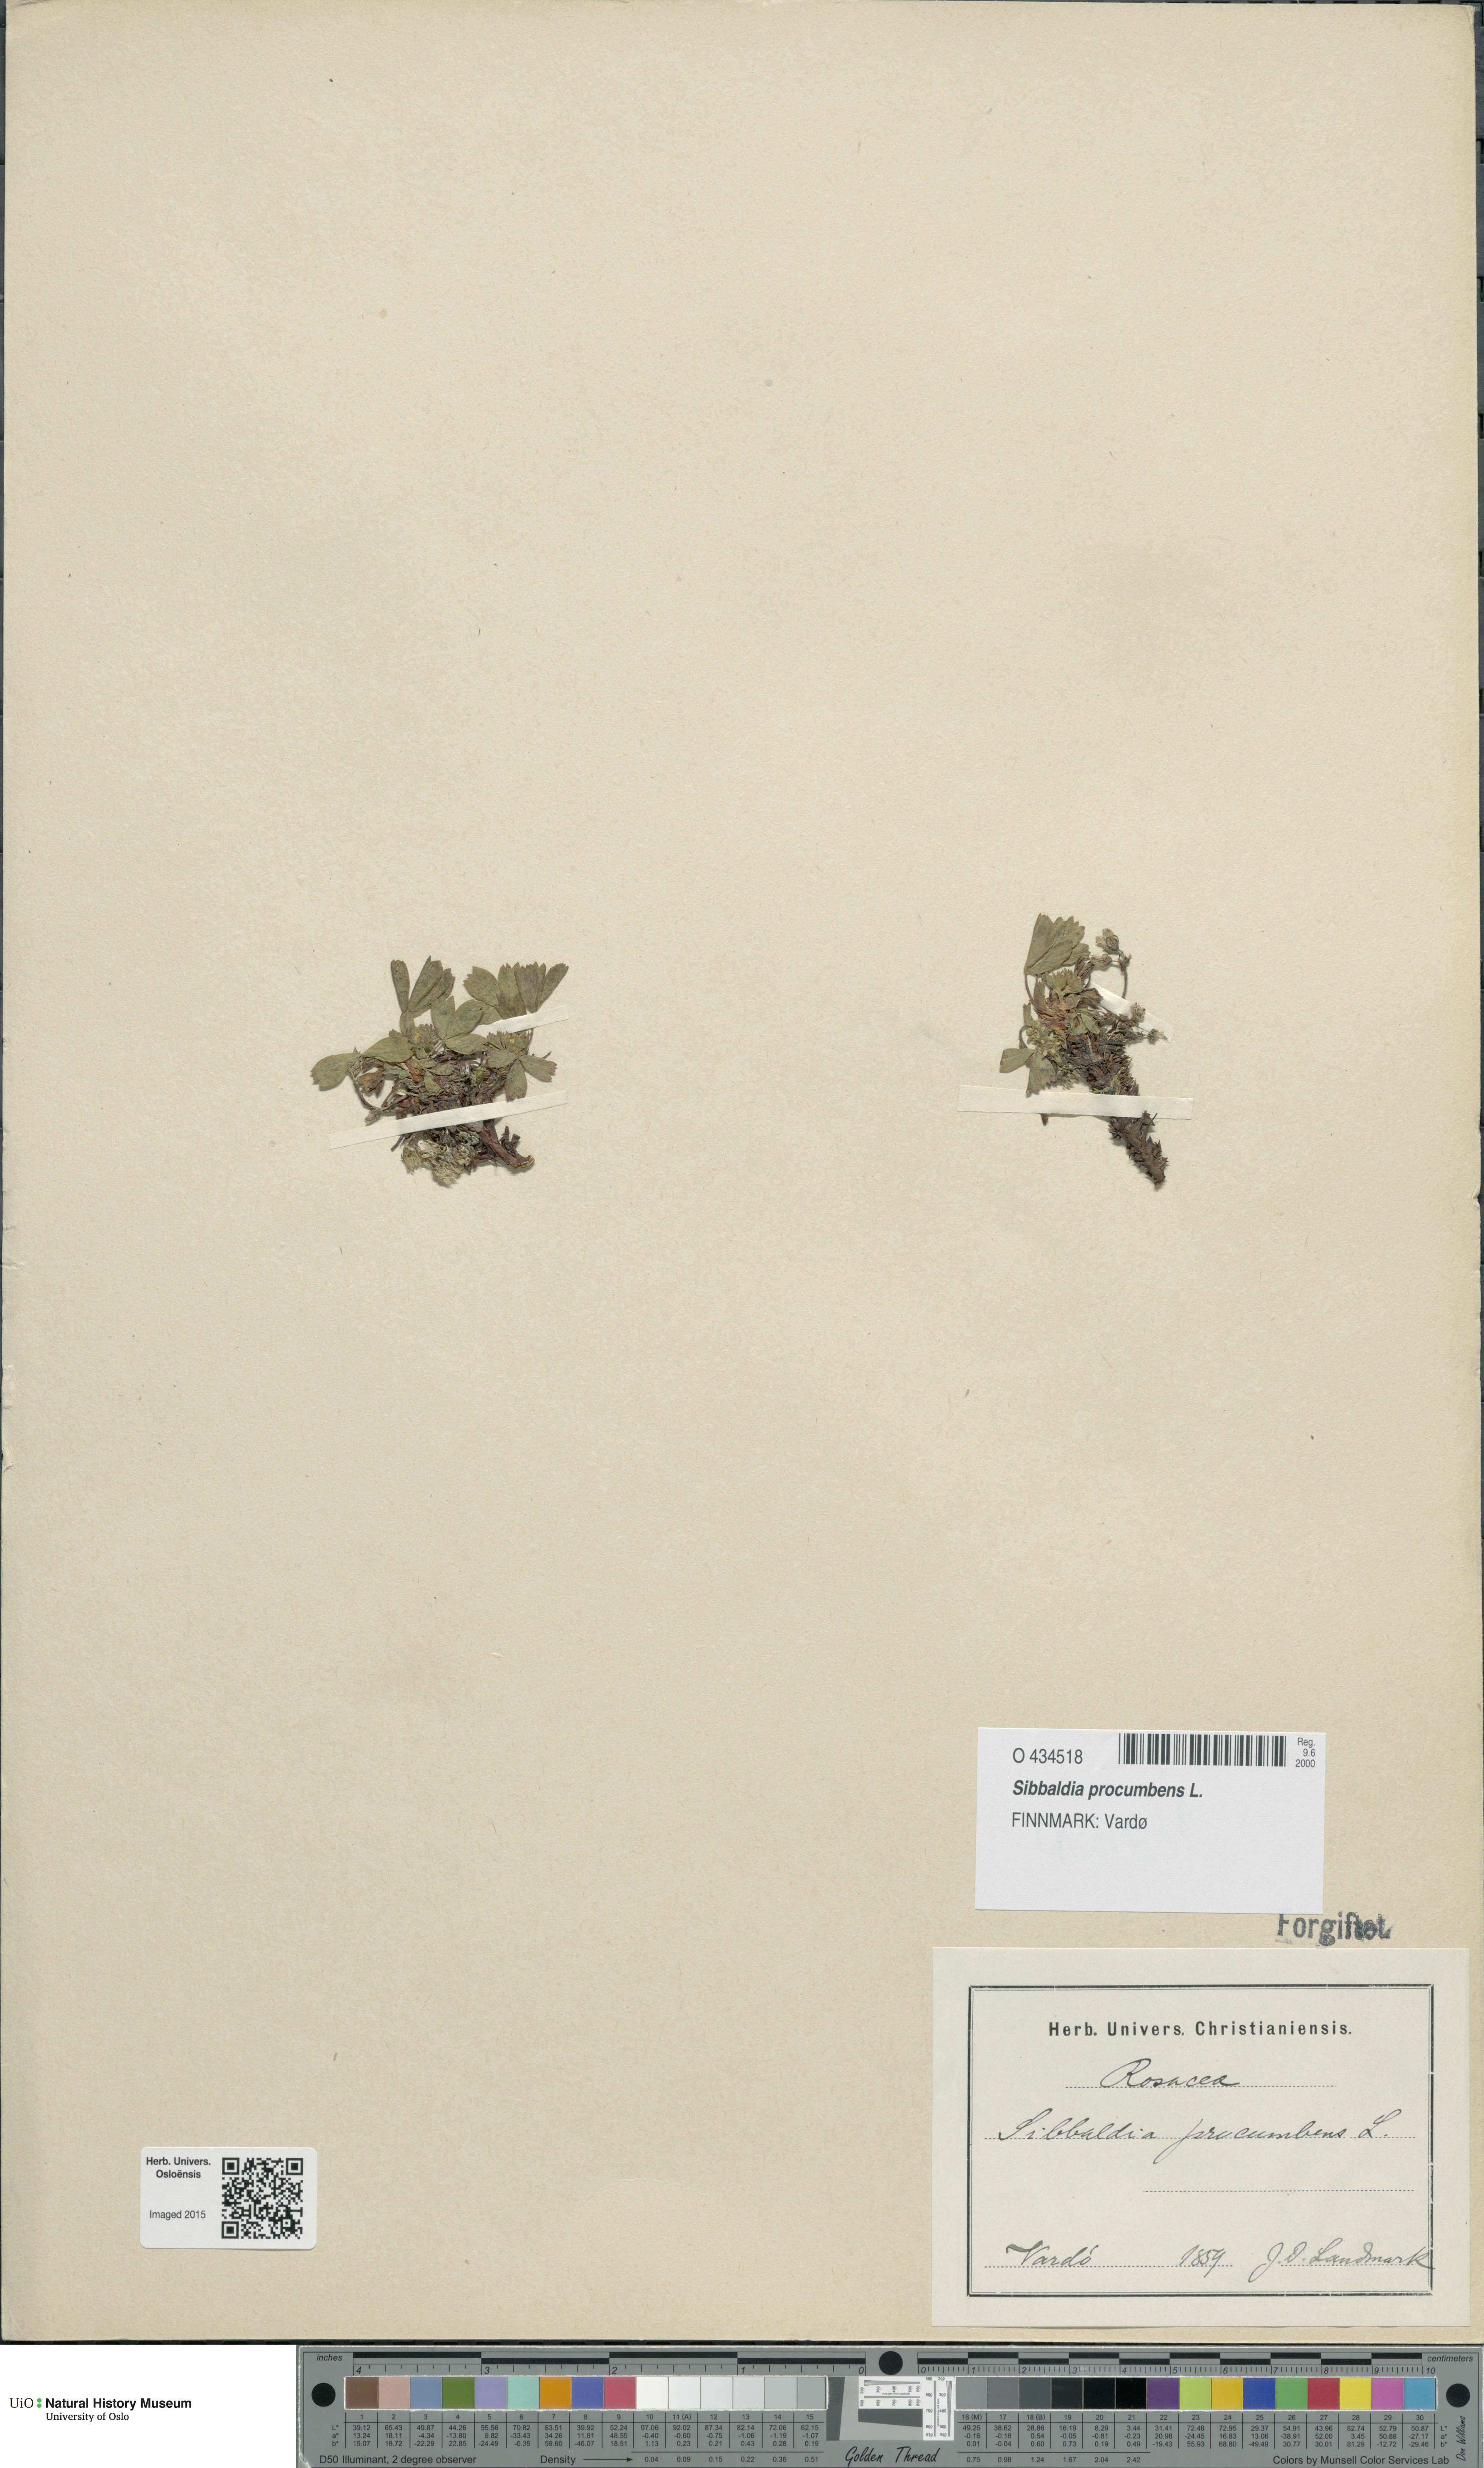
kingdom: Plantae
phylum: Tracheophyta
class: Magnoliopsida
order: Rosales
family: Rosaceae
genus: Sibbaldia
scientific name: Sibbaldia procumbens
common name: Creeping sibbaldia
